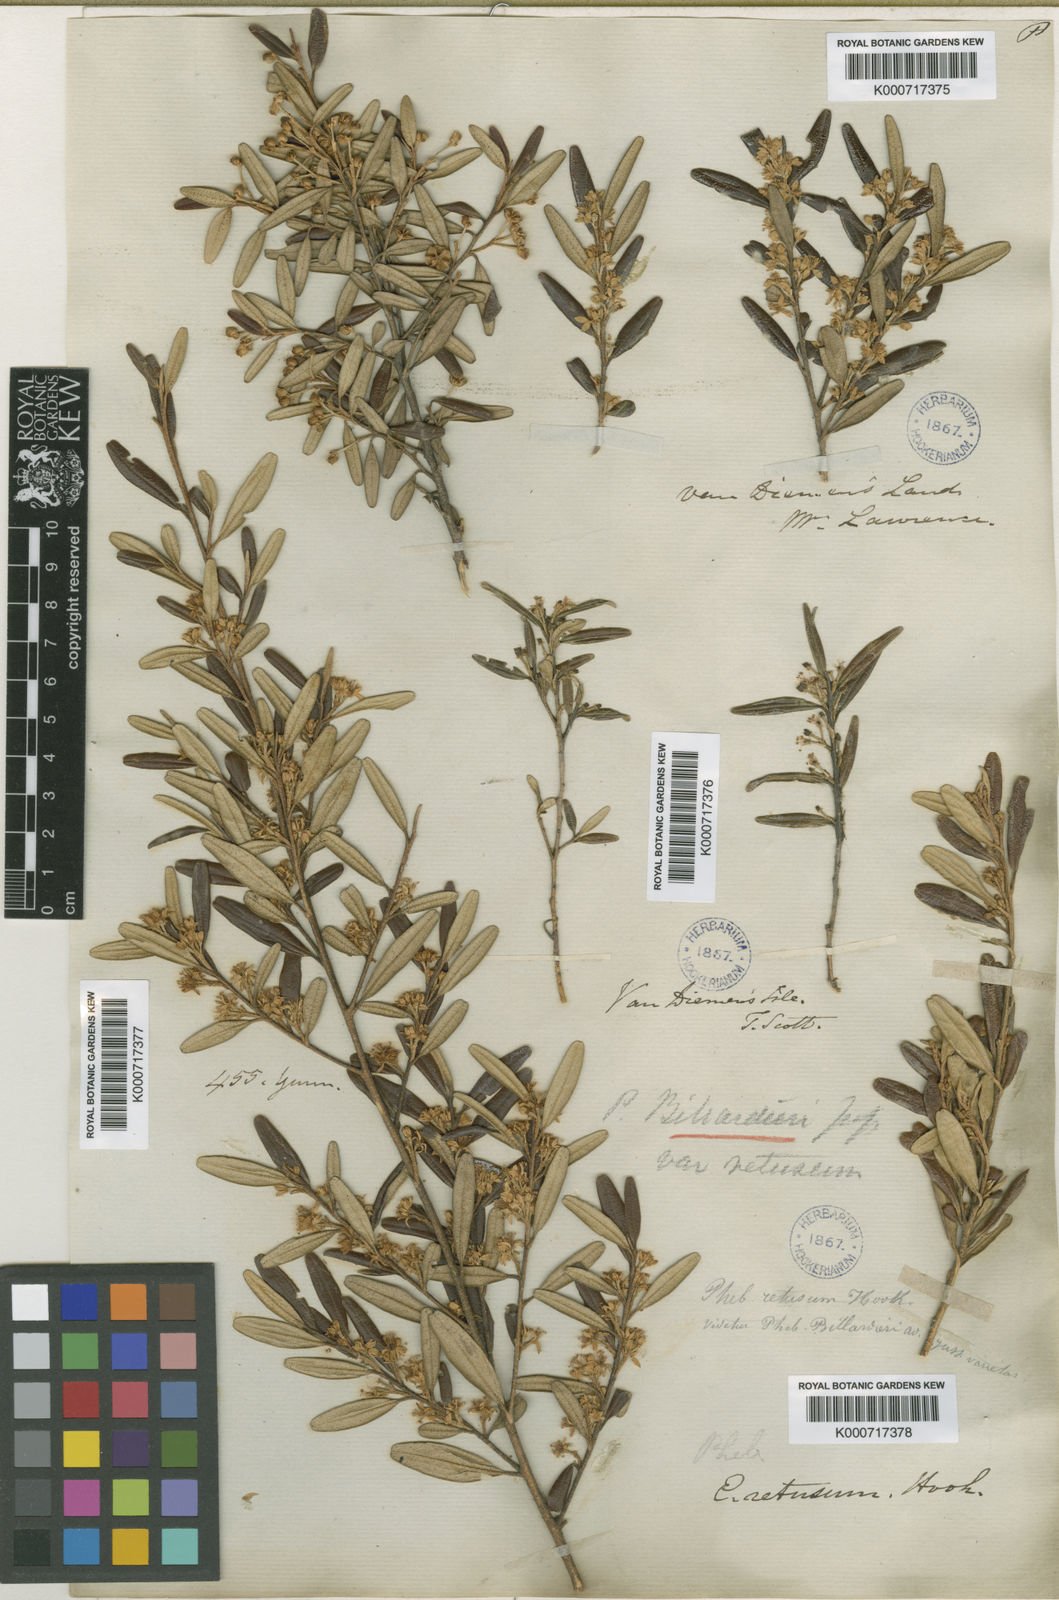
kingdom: Plantae
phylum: Tracheophyta
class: Magnoliopsida
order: Sapindales
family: Rutaceae
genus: Nematolepis
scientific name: Nematolepis squamea
